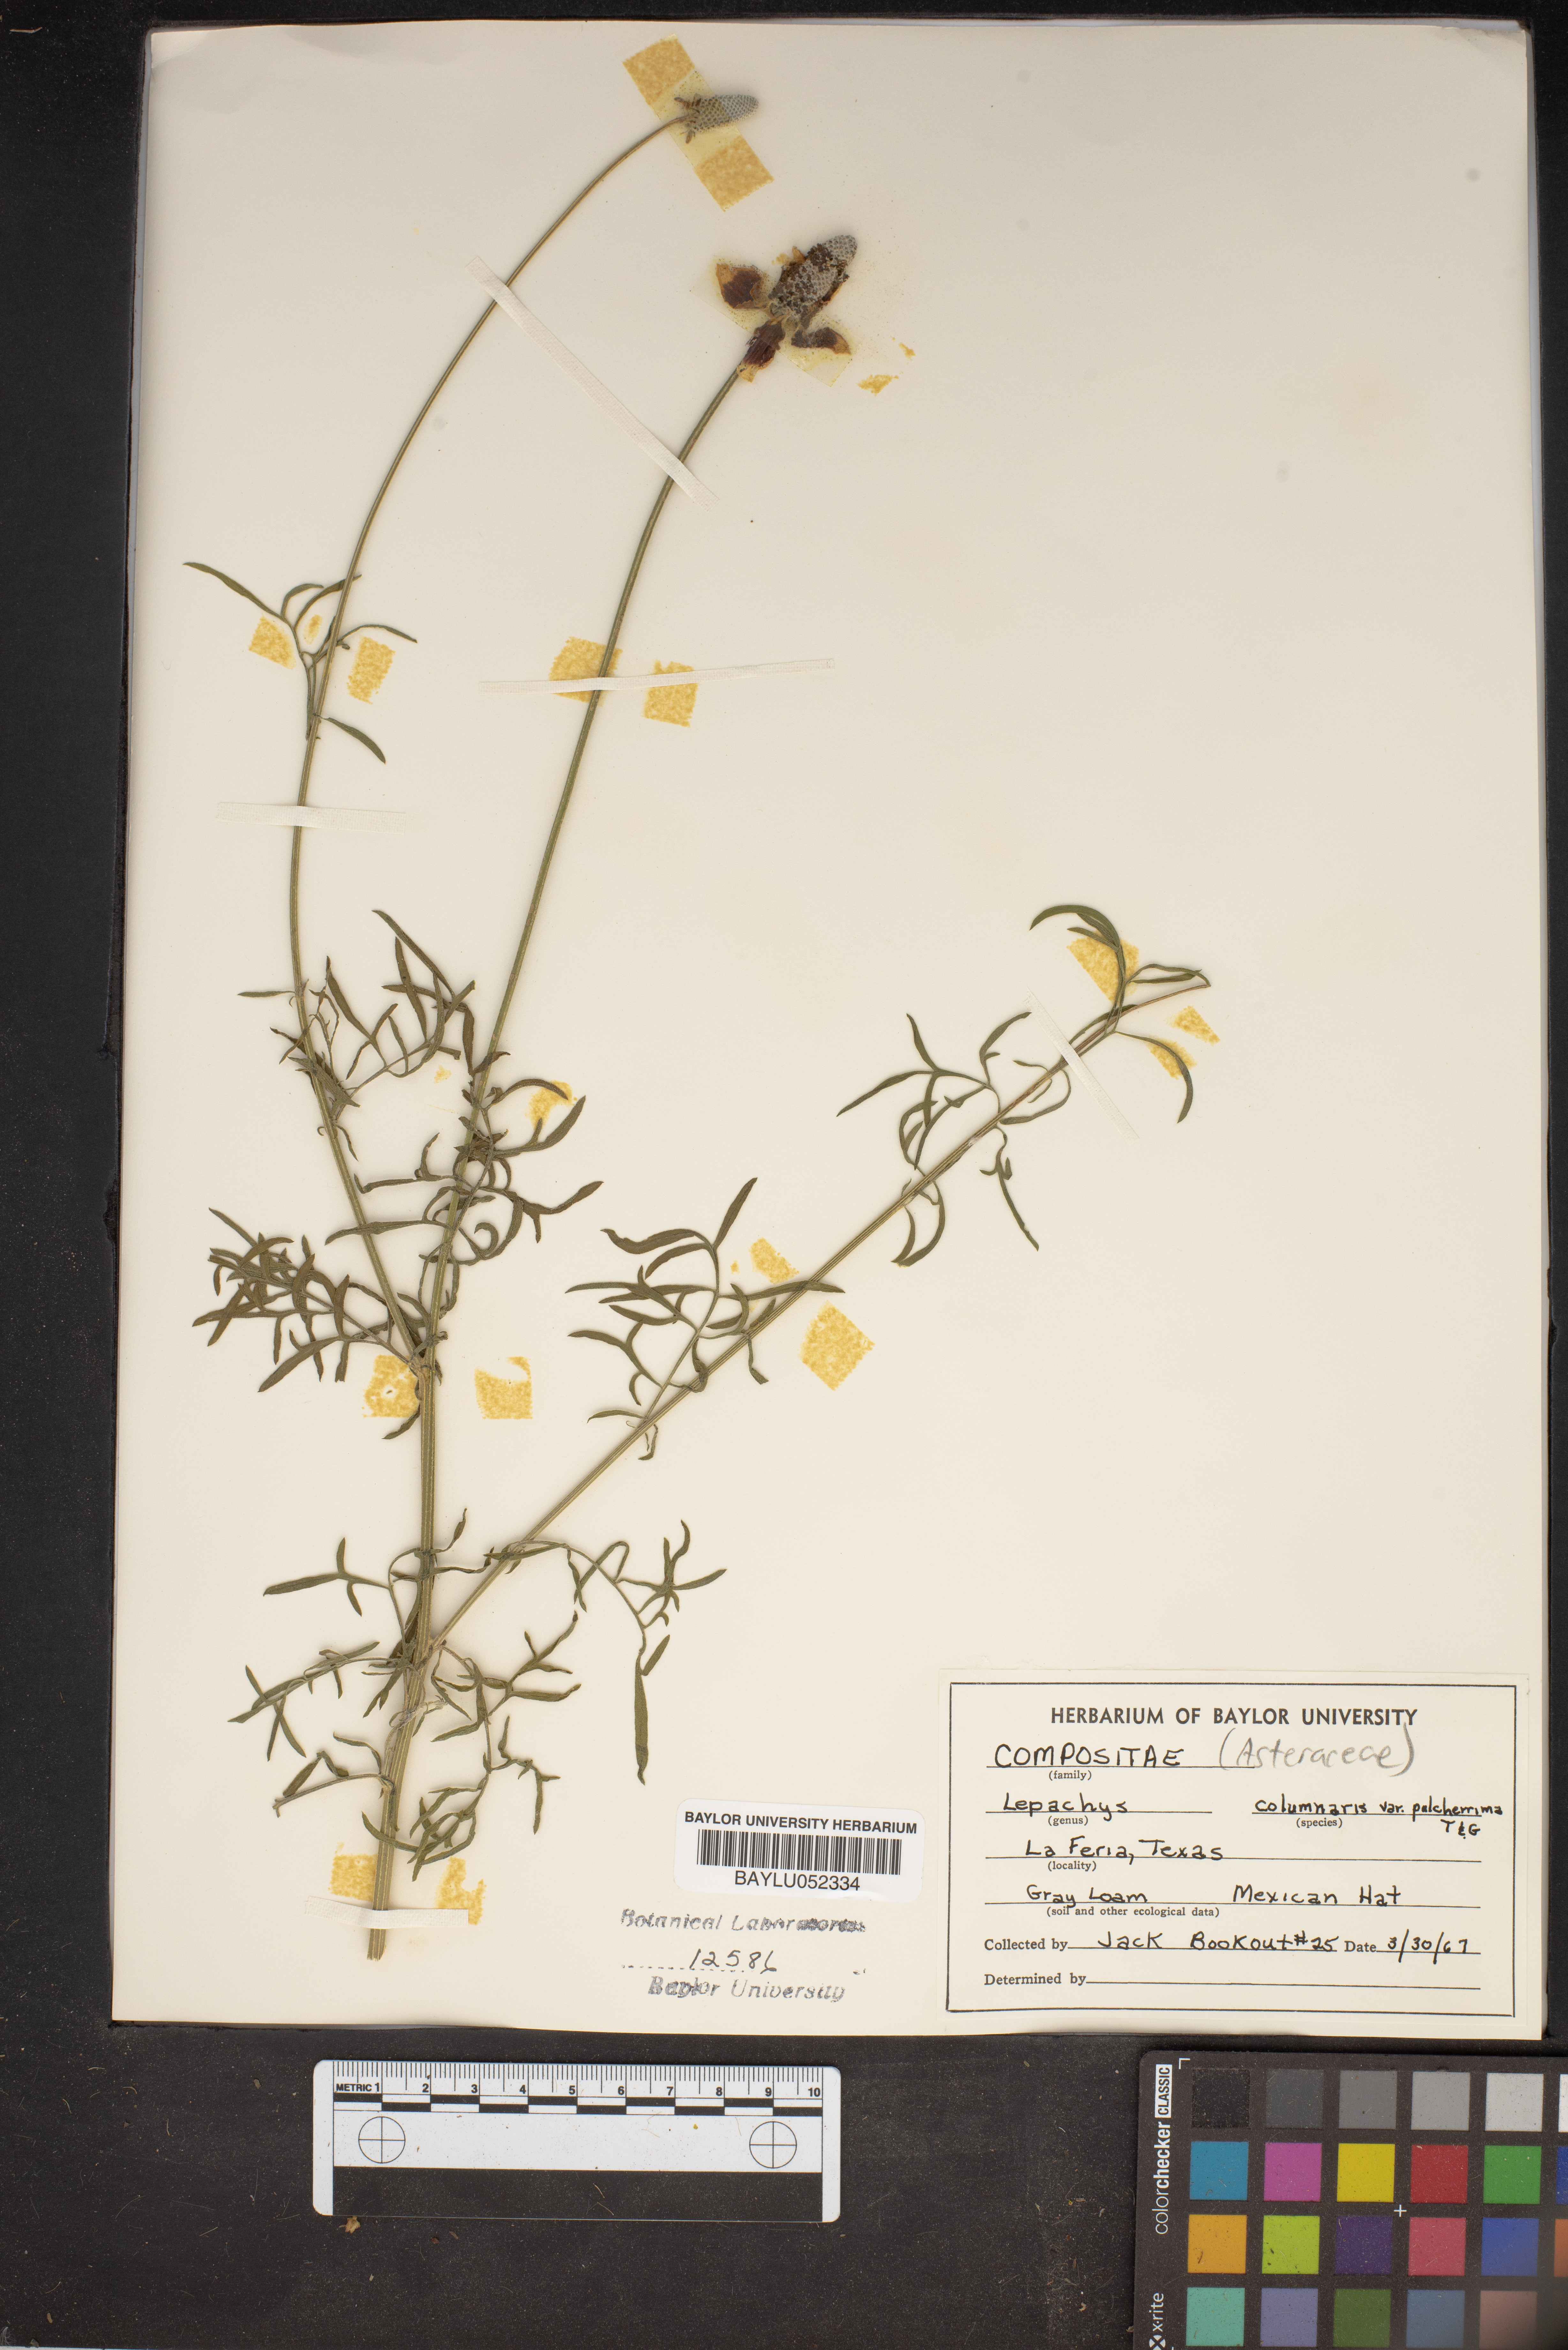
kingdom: Plantae
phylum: Tracheophyta
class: Magnoliopsida
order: Asterales
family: Asteraceae
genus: Ratibida
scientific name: Ratibida columnifera
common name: Prairie coneflower
